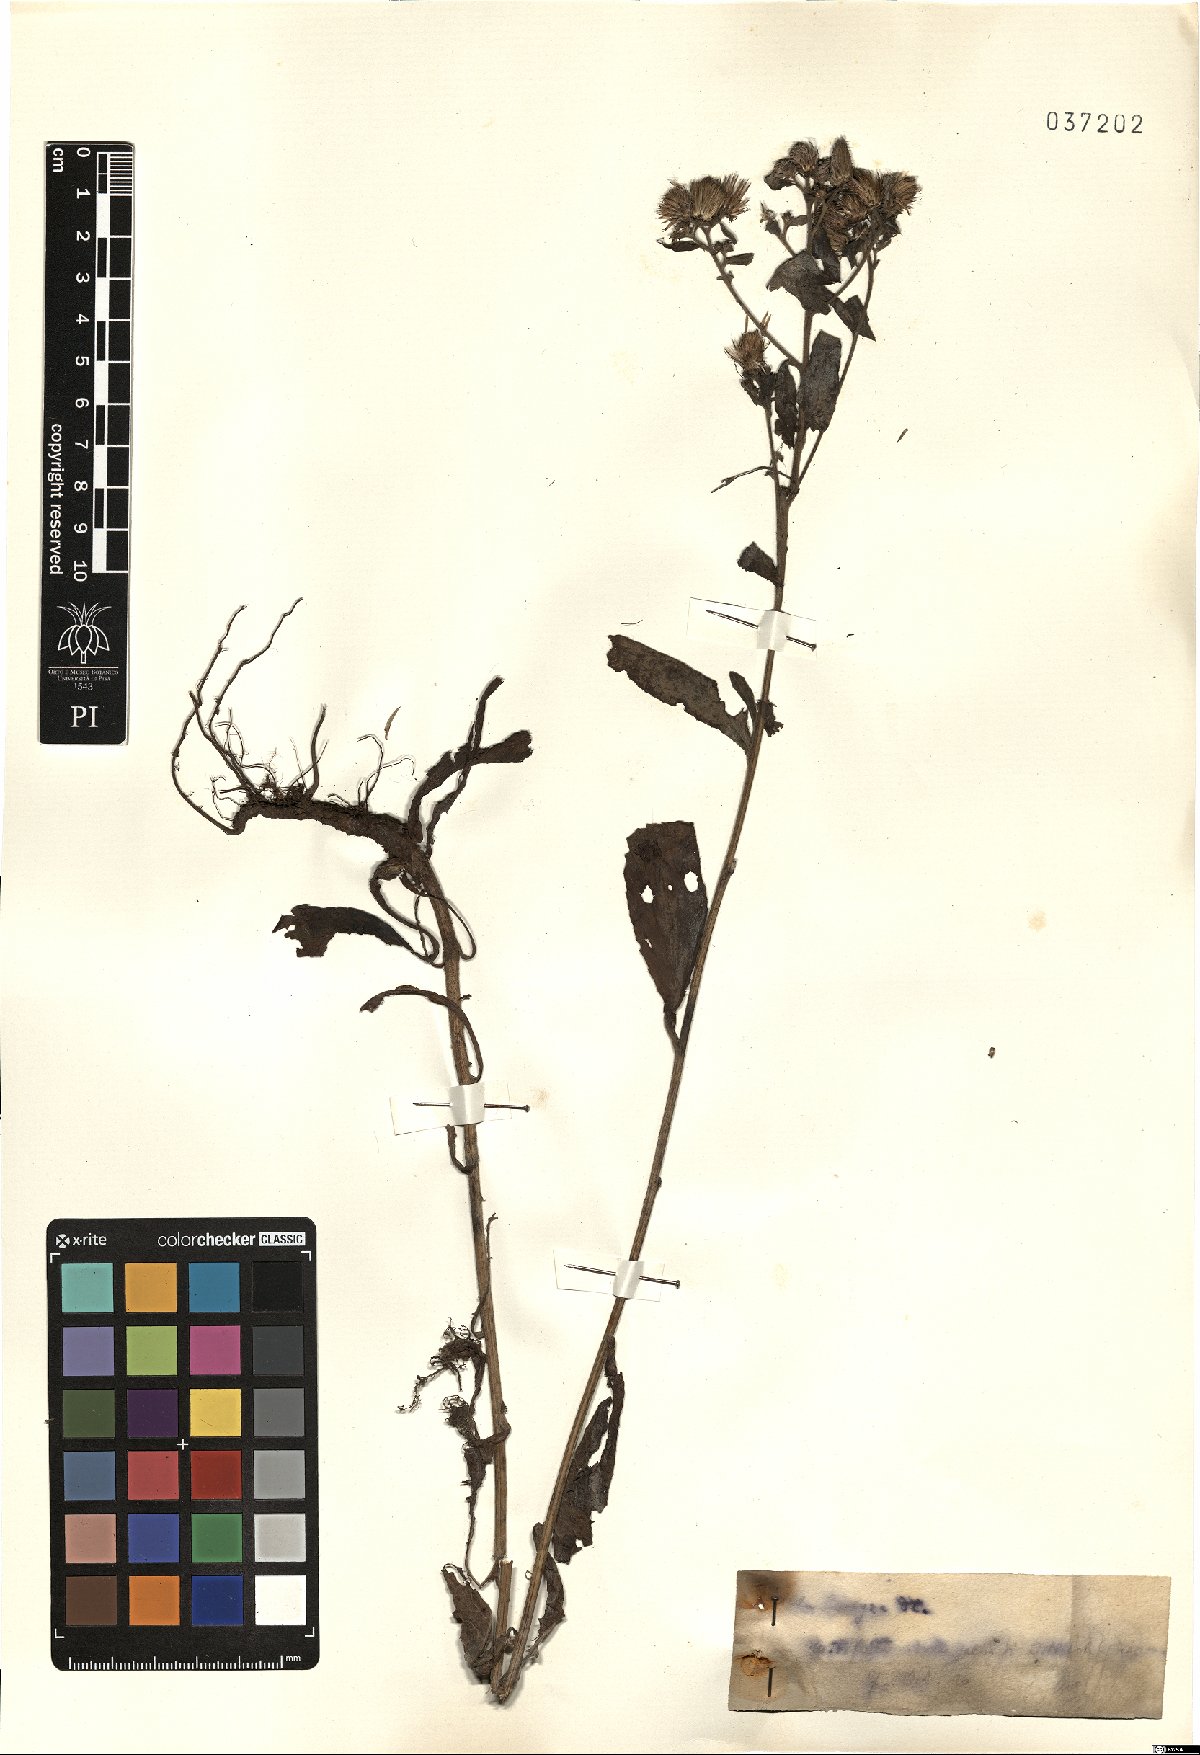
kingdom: Plantae
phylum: Tracheophyta
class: Magnoliopsida
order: Asterales
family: Asteraceae
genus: Pentanema
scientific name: Pentanema squarrosum
